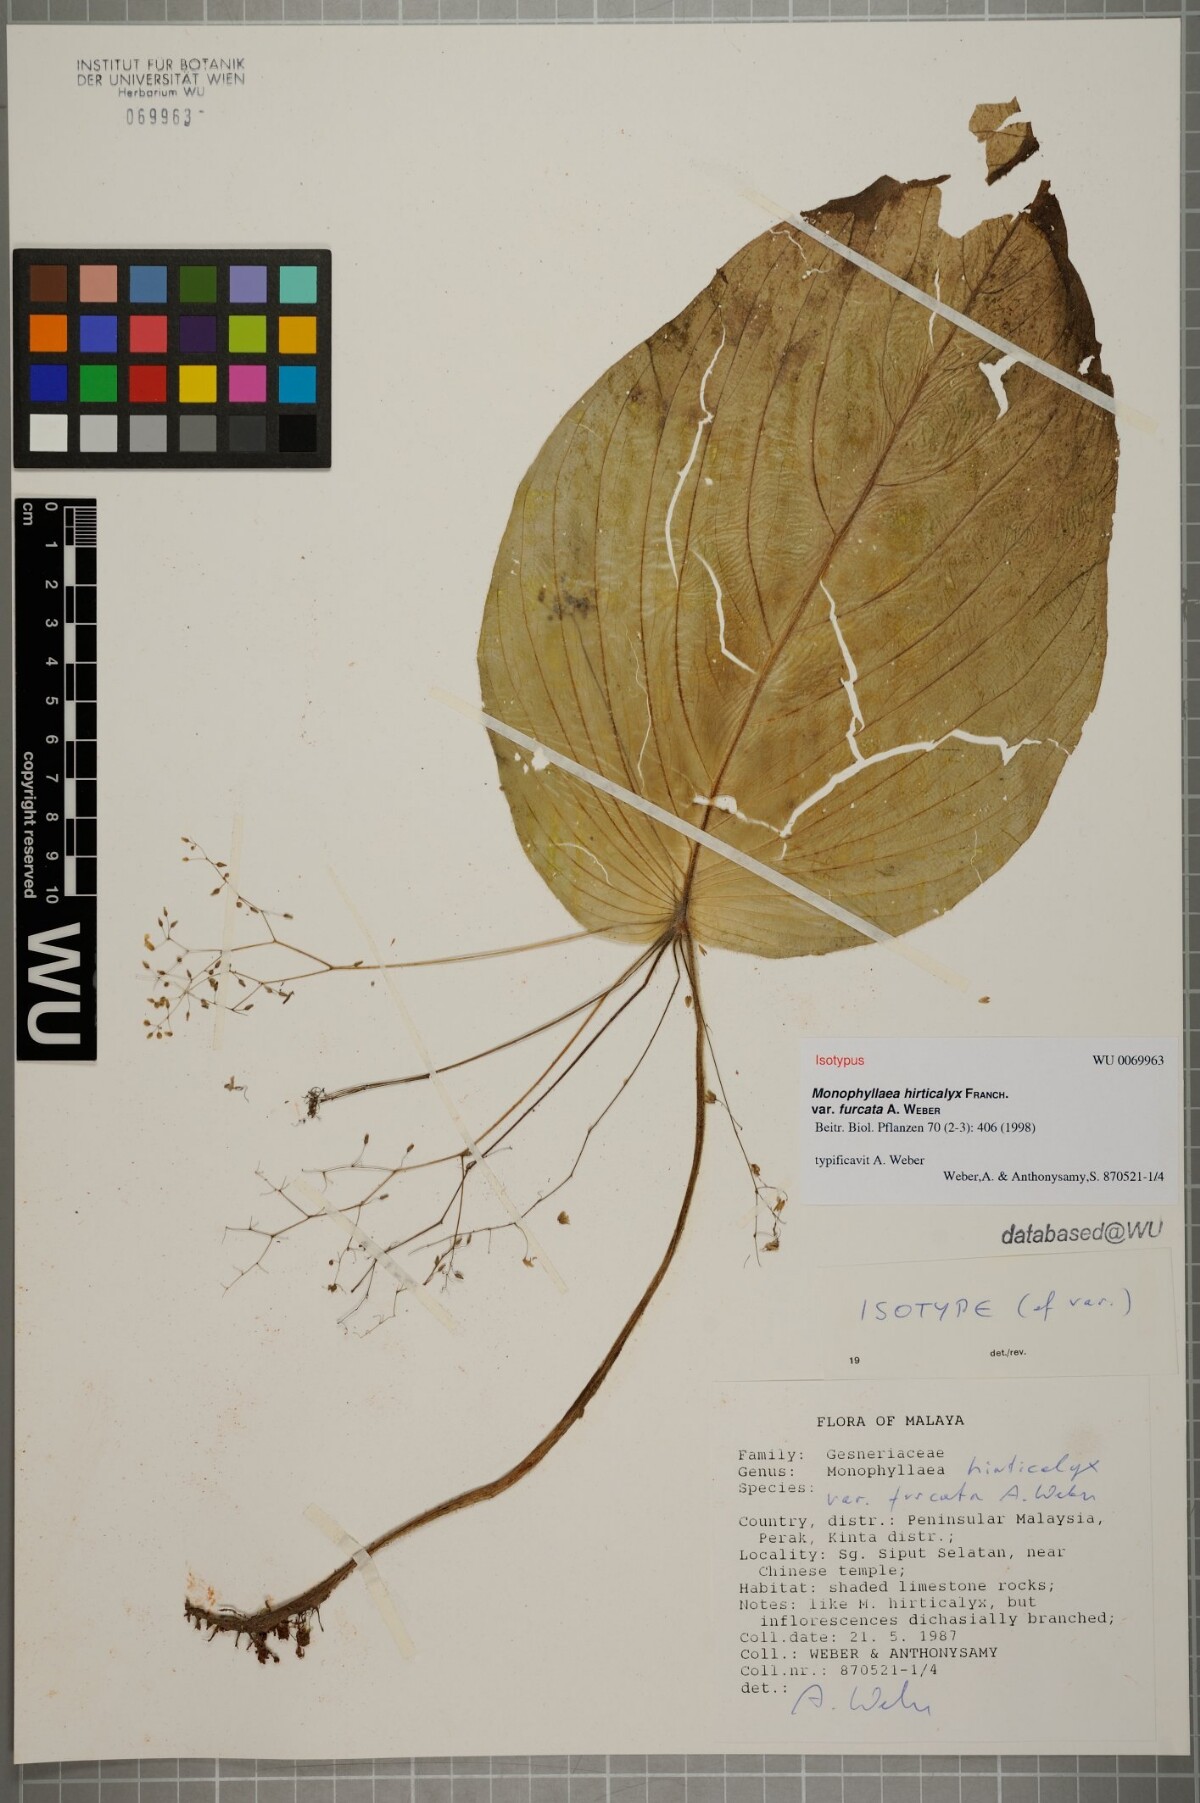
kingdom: Plantae
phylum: Tracheophyta
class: Magnoliopsida
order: Lamiales
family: Gesneriaceae
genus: Monophyllaea
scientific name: Monophyllaea hirticalyx
